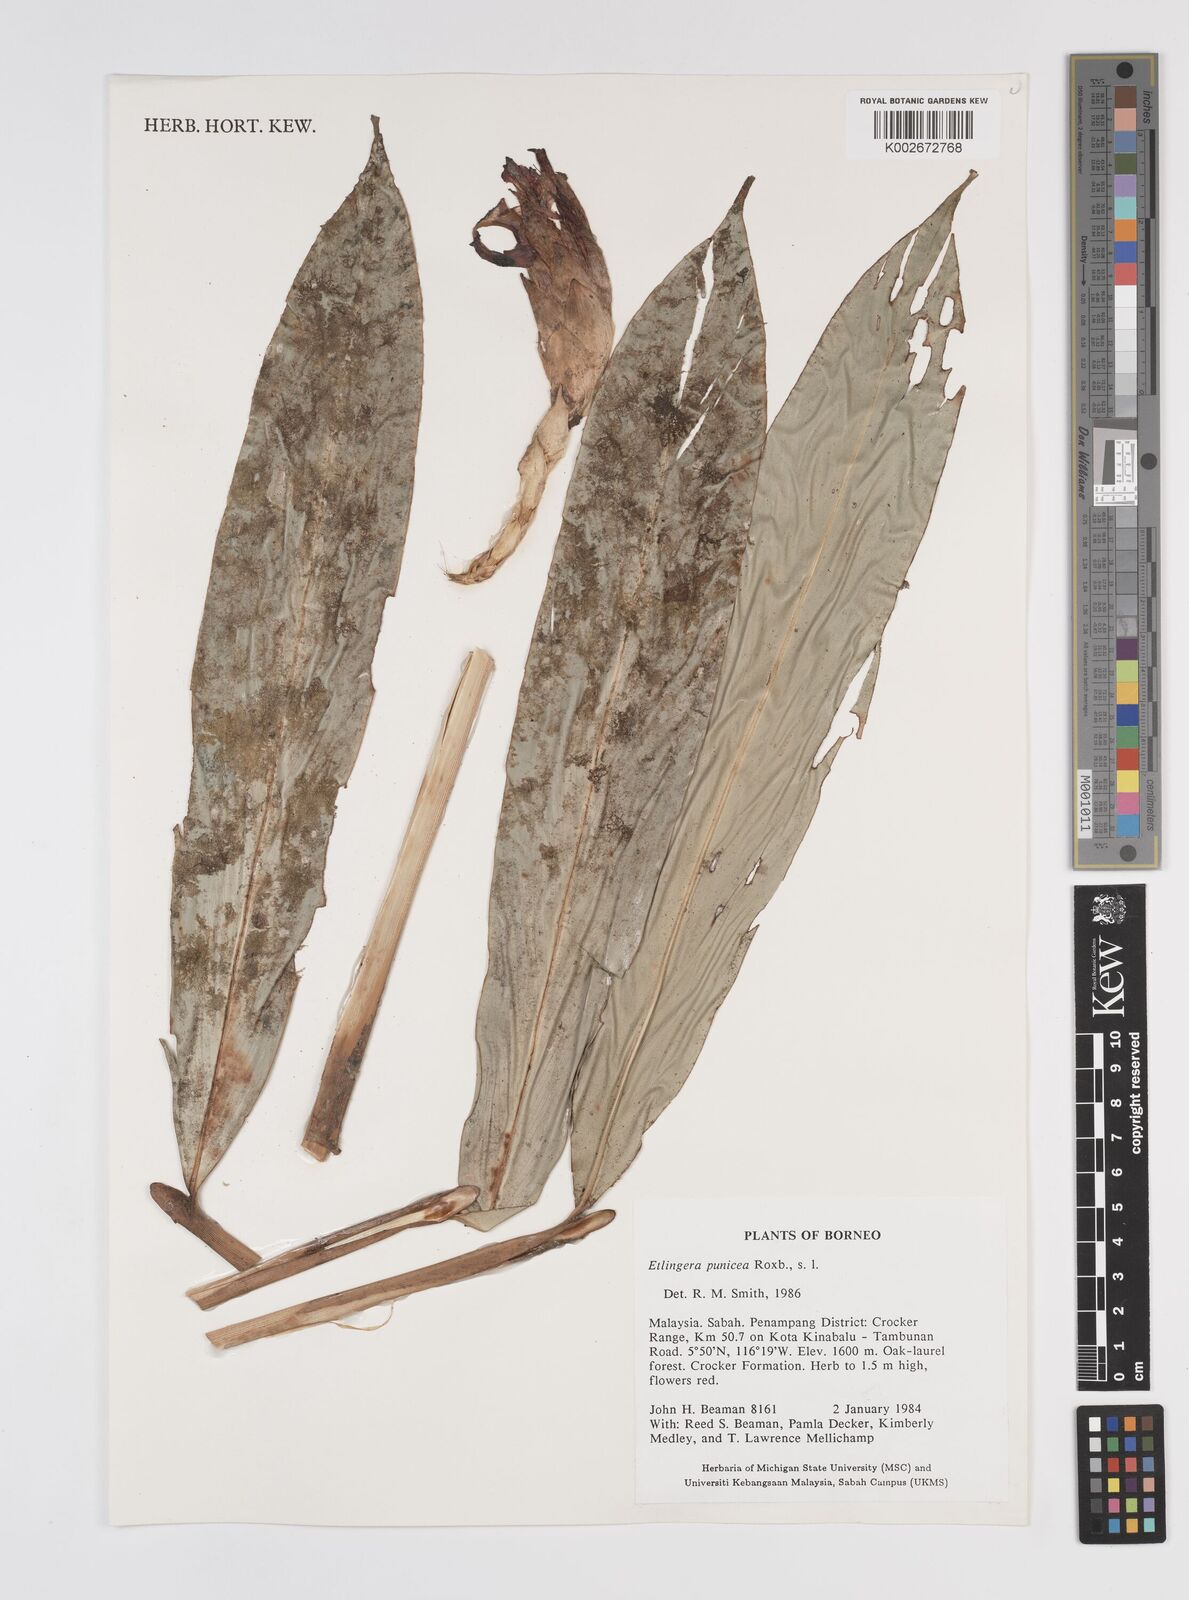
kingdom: Plantae
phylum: Tracheophyta
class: Liliopsida
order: Zingiberales
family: Zingiberaceae
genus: Etlingera
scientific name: Etlingera punicea
